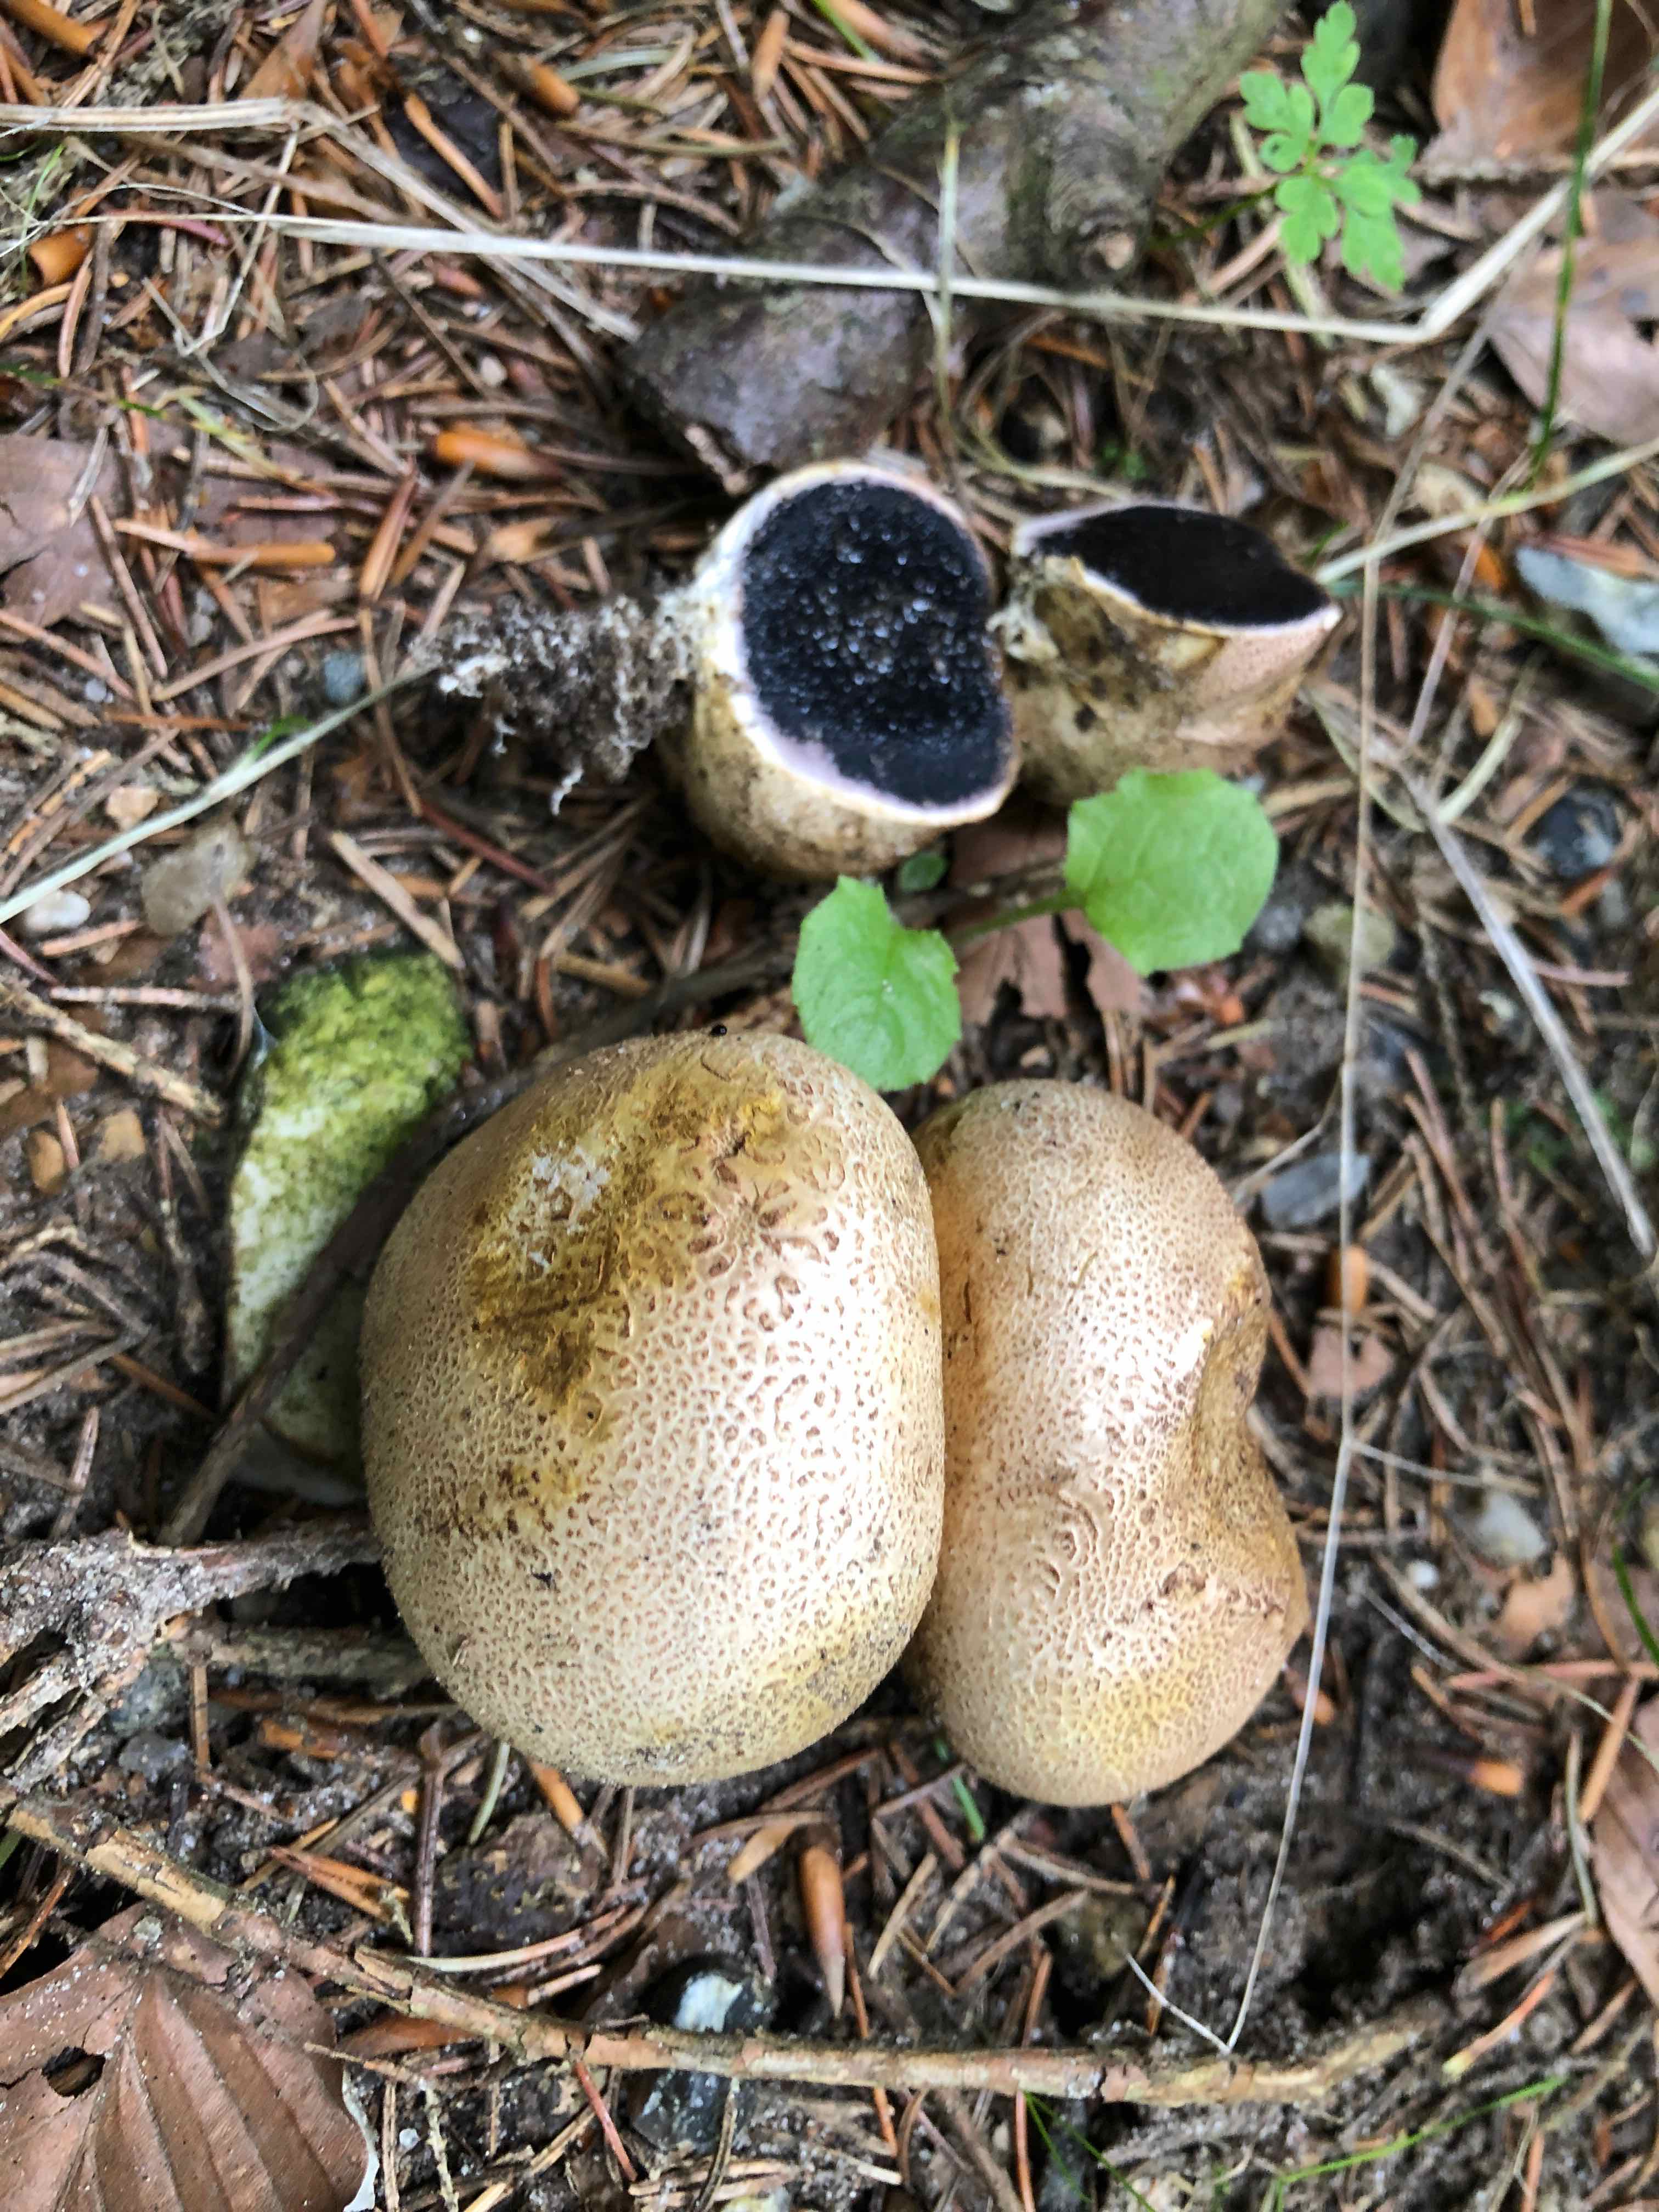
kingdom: Fungi
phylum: Basidiomycota
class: Agaricomycetes
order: Boletales
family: Sclerodermataceae
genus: Scleroderma
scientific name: Scleroderma citrinum
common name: almindelig bruskbold
